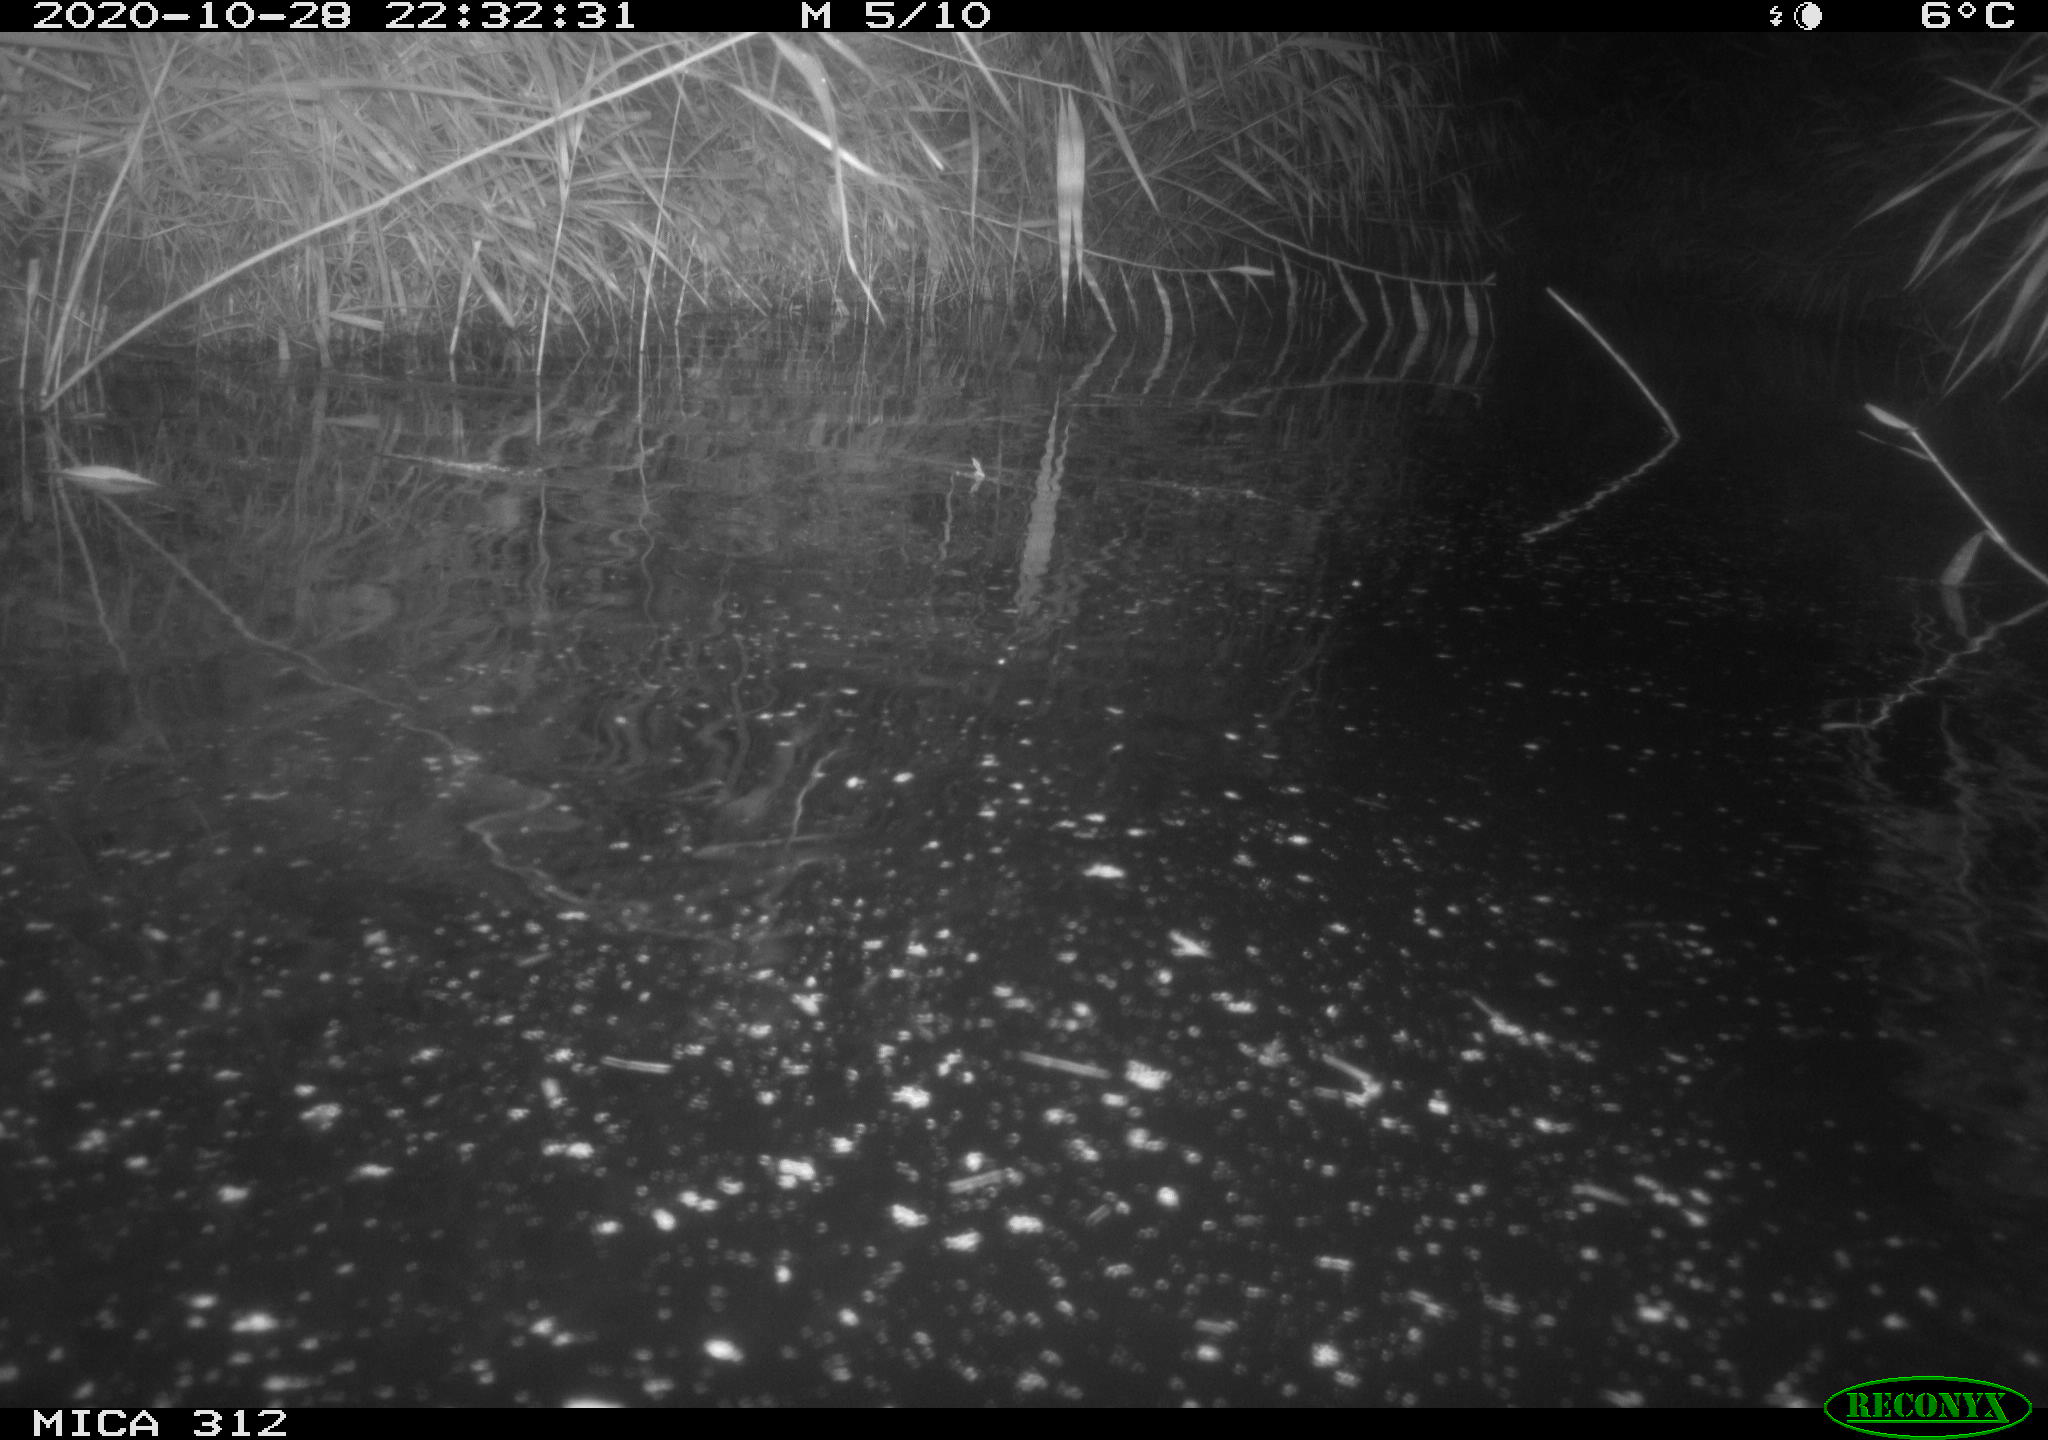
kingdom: Animalia
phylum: Chordata
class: Mammalia
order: Rodentia
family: Muridae
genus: Rattus
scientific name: Rattus norvegicus
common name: Brown rat
